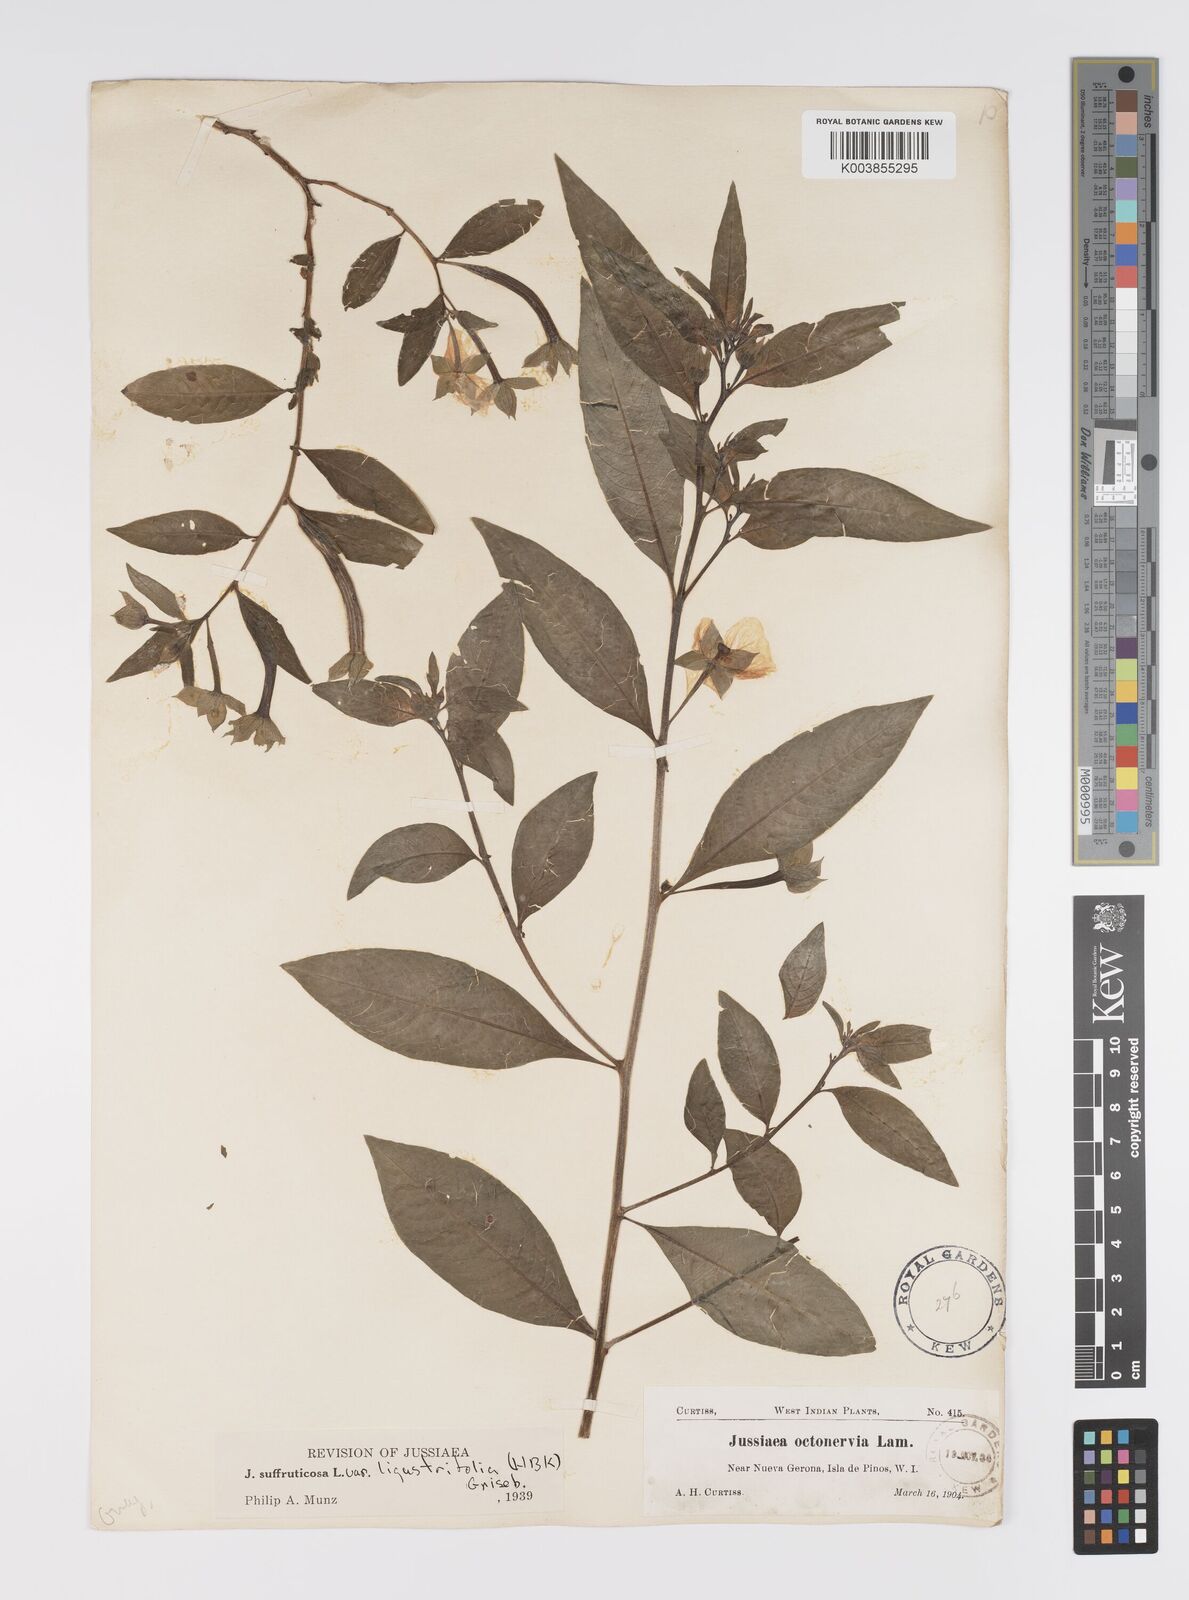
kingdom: Plantae
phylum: Tracheophyta
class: Magnoliopsida
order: Myrtales
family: Onagraceae
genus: Ludwigia
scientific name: Ludwigia octovalvis
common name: Water-primrose
